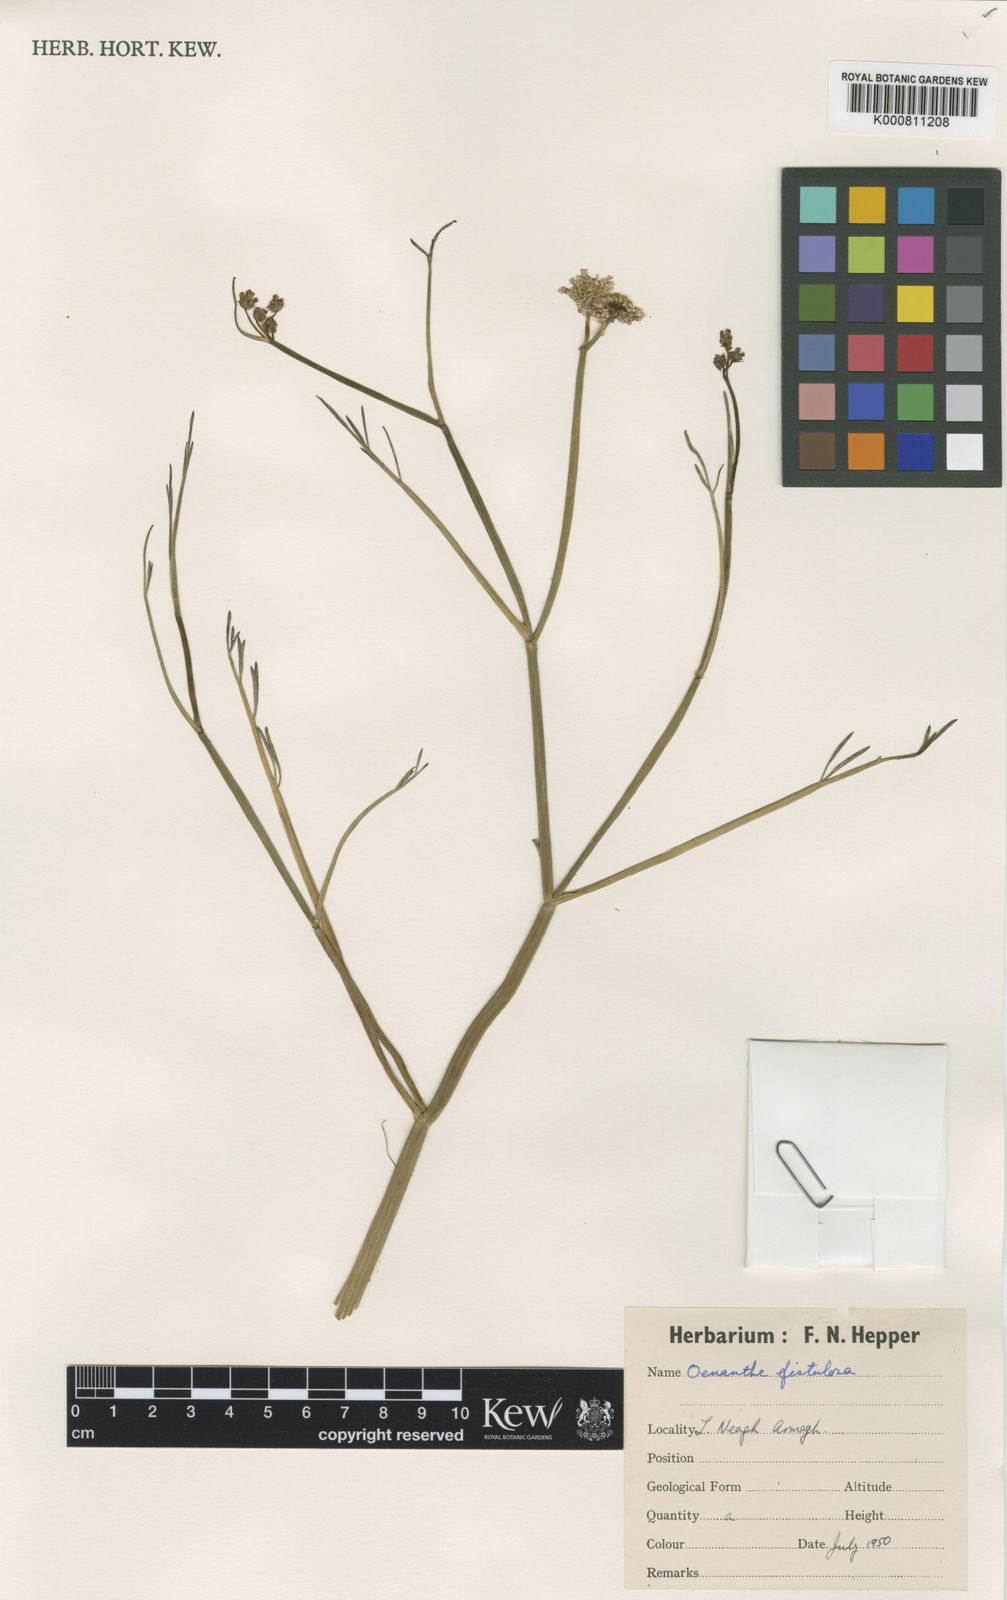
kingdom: Plantae
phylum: Tracheophyta
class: Magnoliopsida
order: Apiales
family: Apiaceae
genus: Oenanthe
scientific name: Oenanthe fistulosa
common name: Tubular water-dropwort
